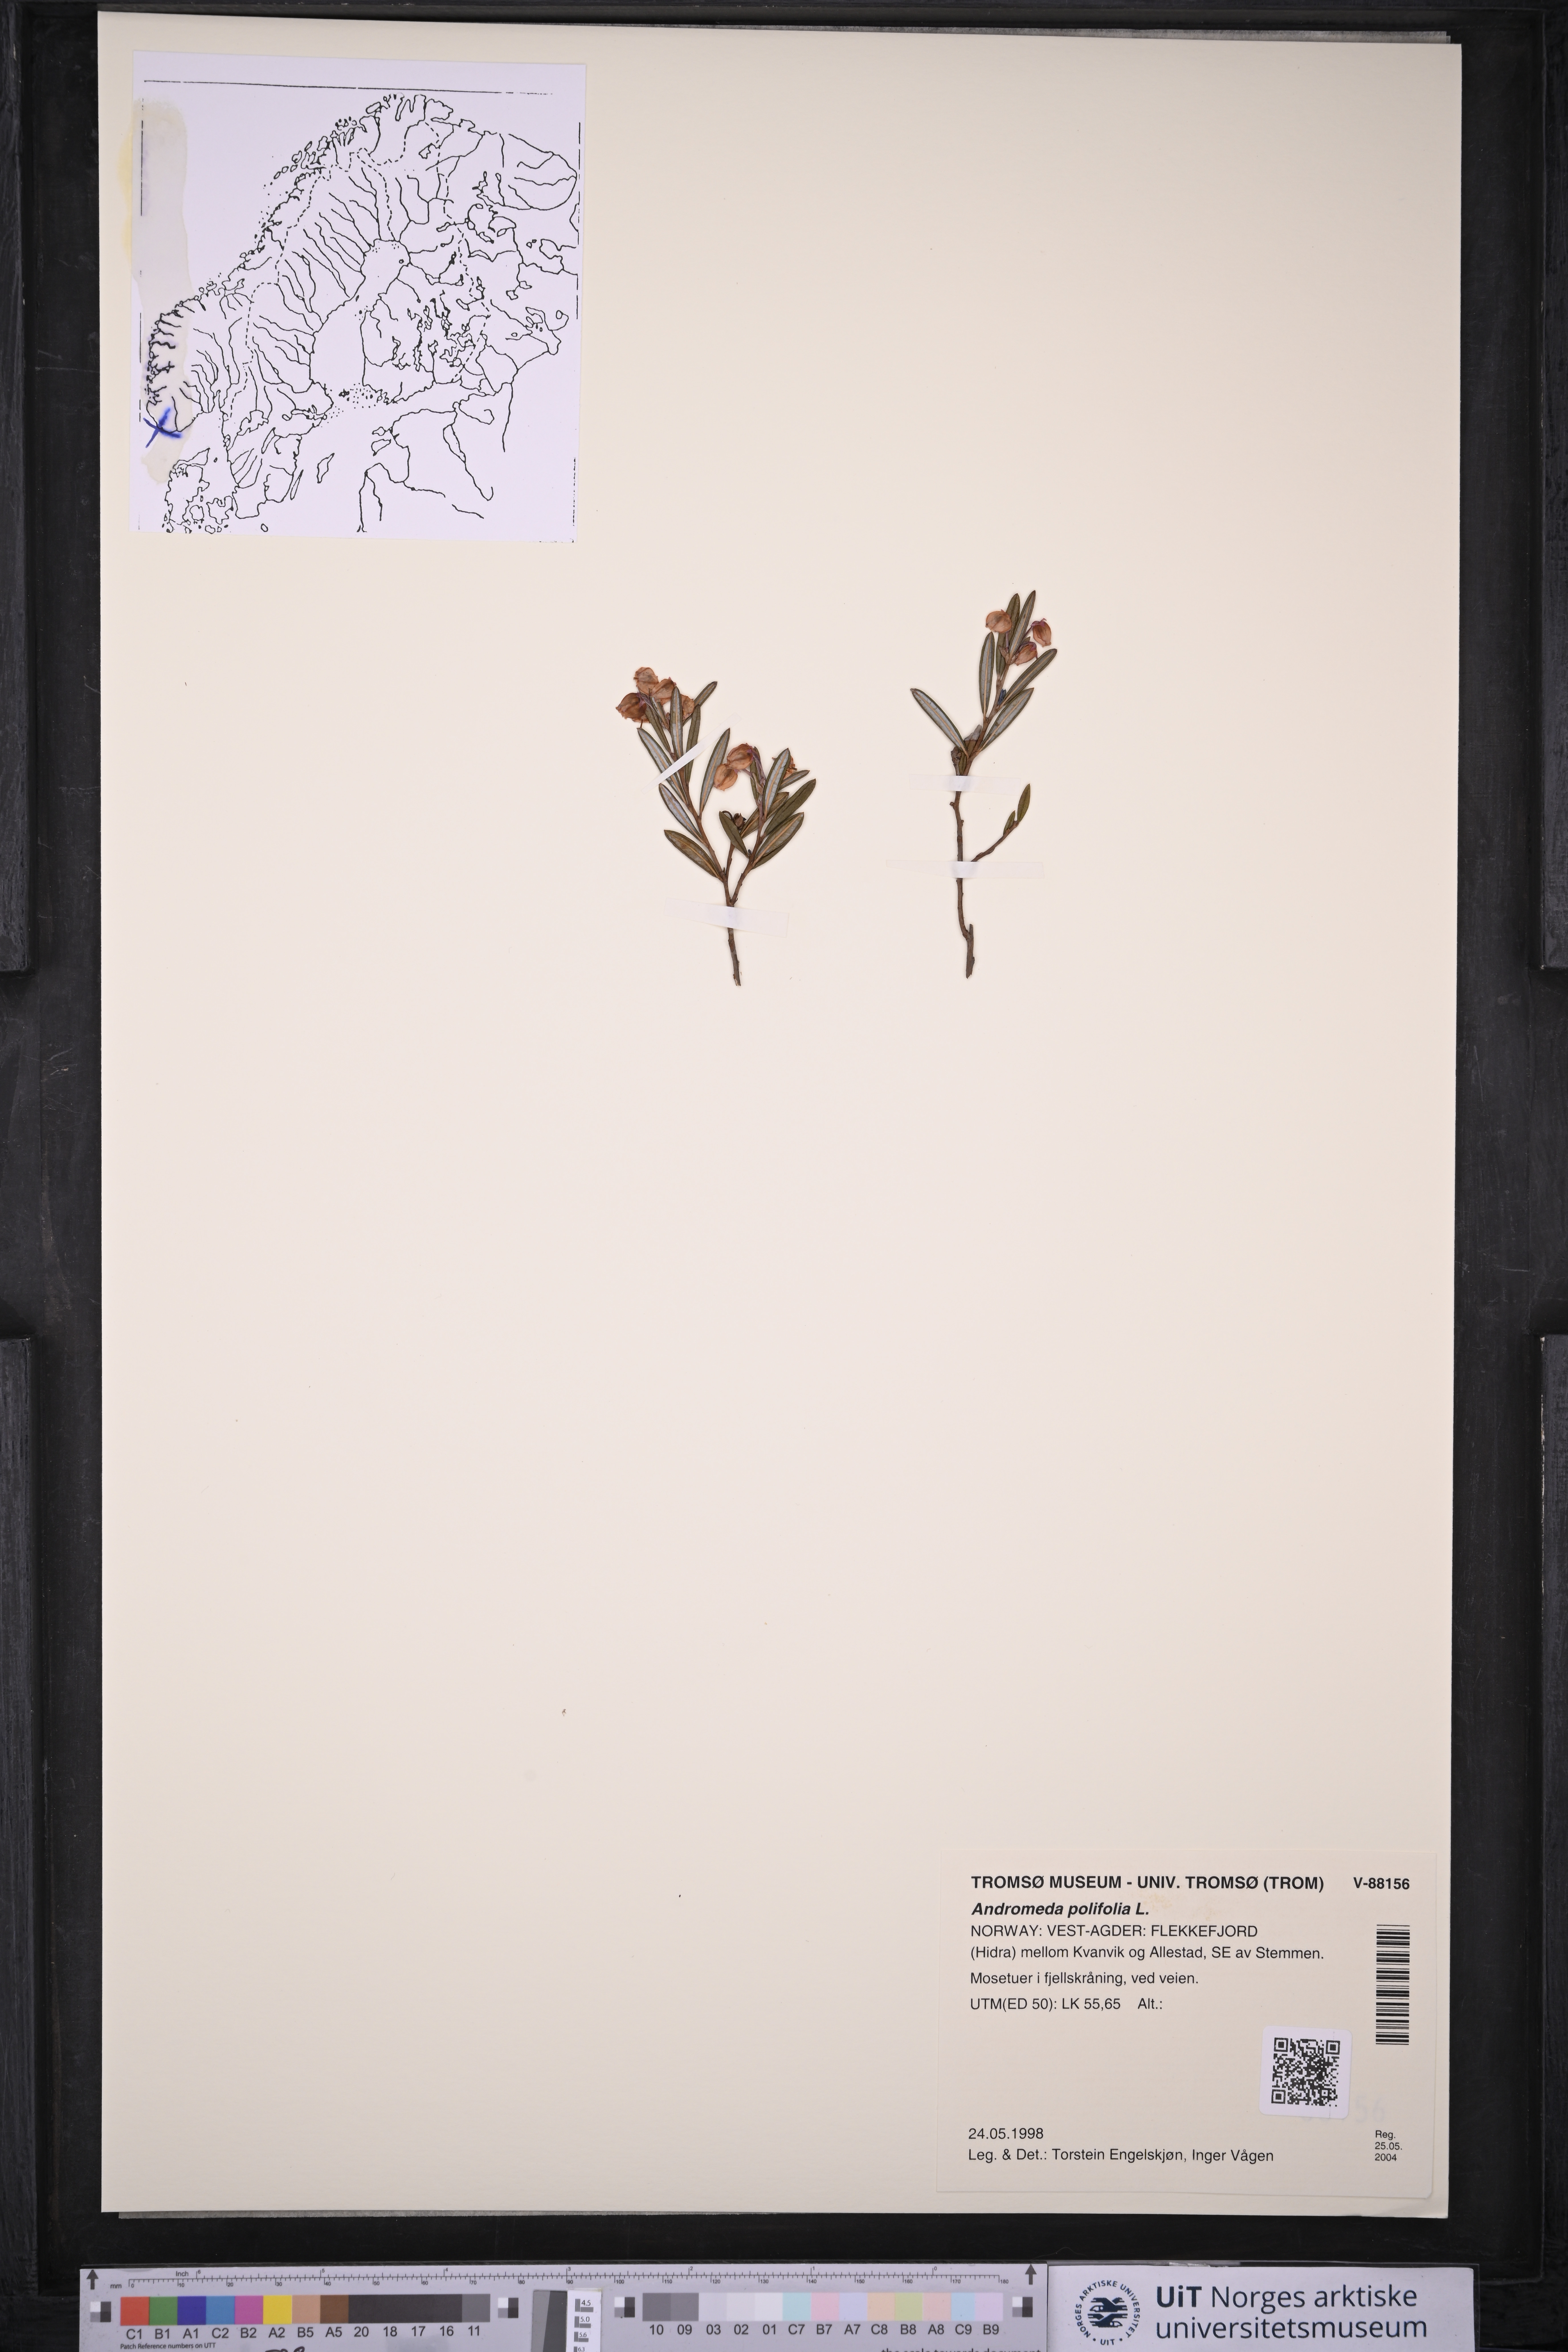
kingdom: Plantae
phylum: Tracheophyta
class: Magnoliopsida
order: Ericales
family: Ericaceae
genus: Andromeda
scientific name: Andromeda polifolia
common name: Bog-rosemary
